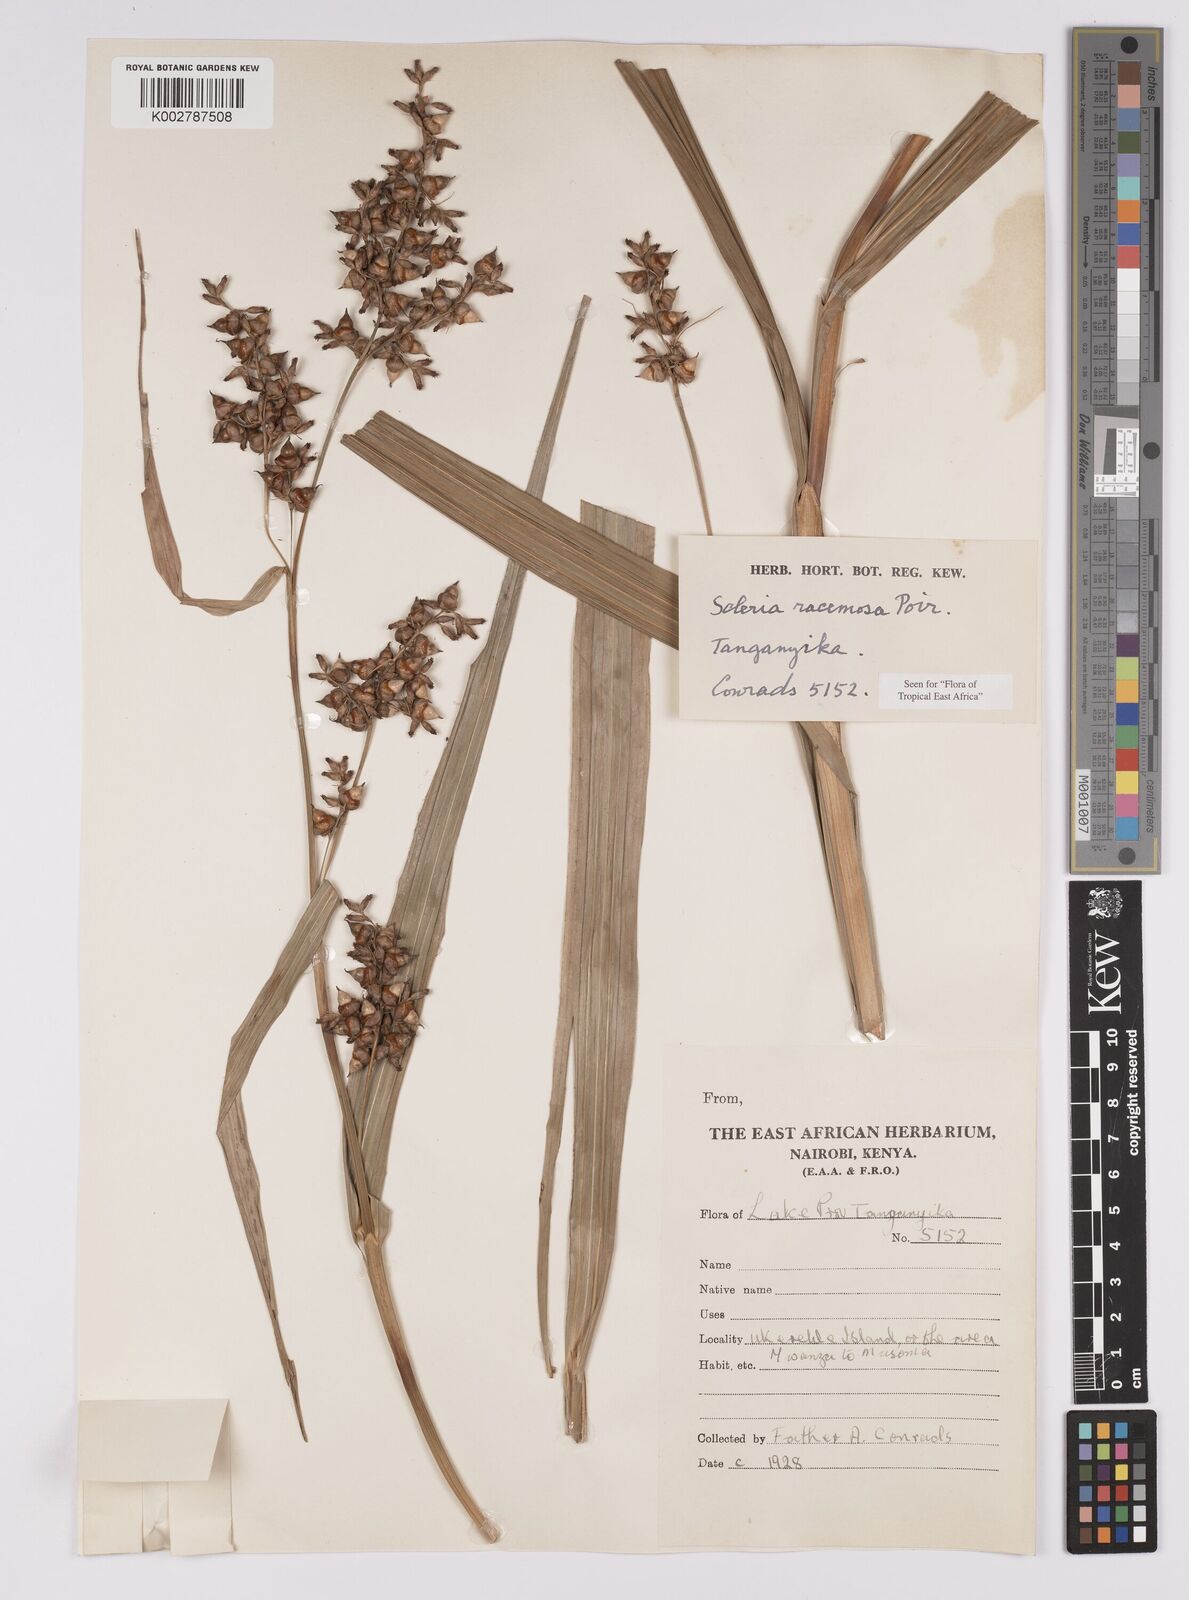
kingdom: Plantae
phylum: Tracheophyta
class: Liliopsida
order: Poales
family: Cyperaceae
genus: Scleria
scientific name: Scleria racemosa
